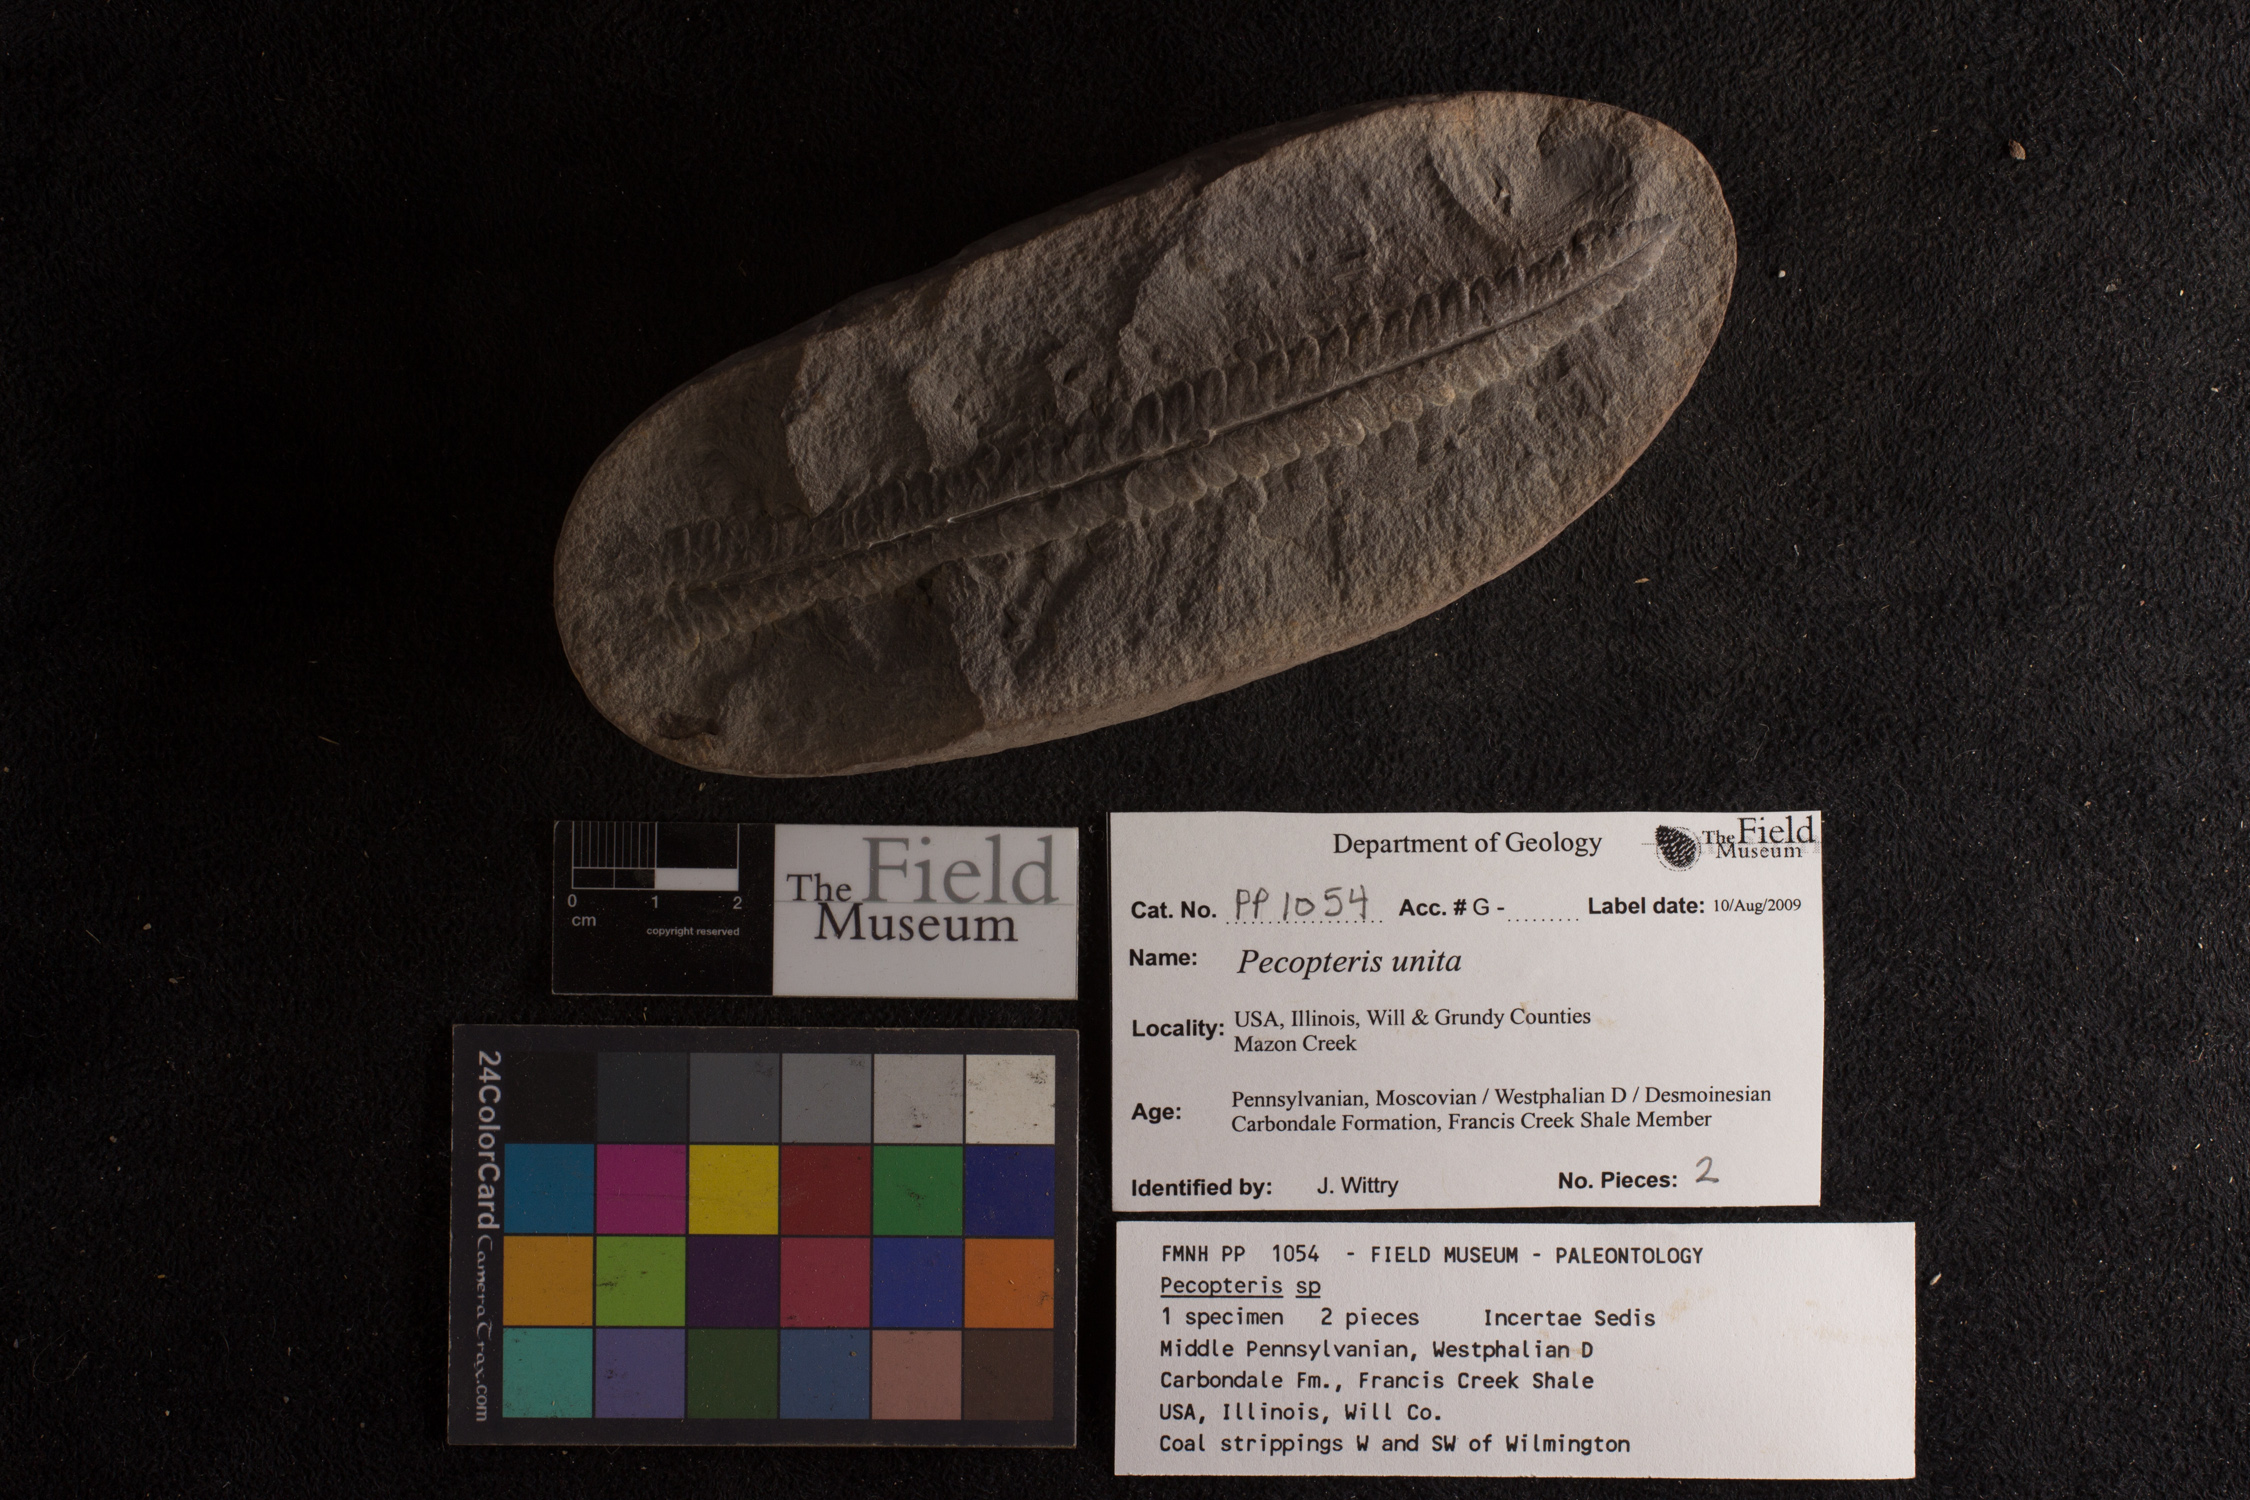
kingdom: Plantae
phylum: Tracheophyta
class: Polypodiopsida
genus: Diplazites
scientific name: Diplazites
